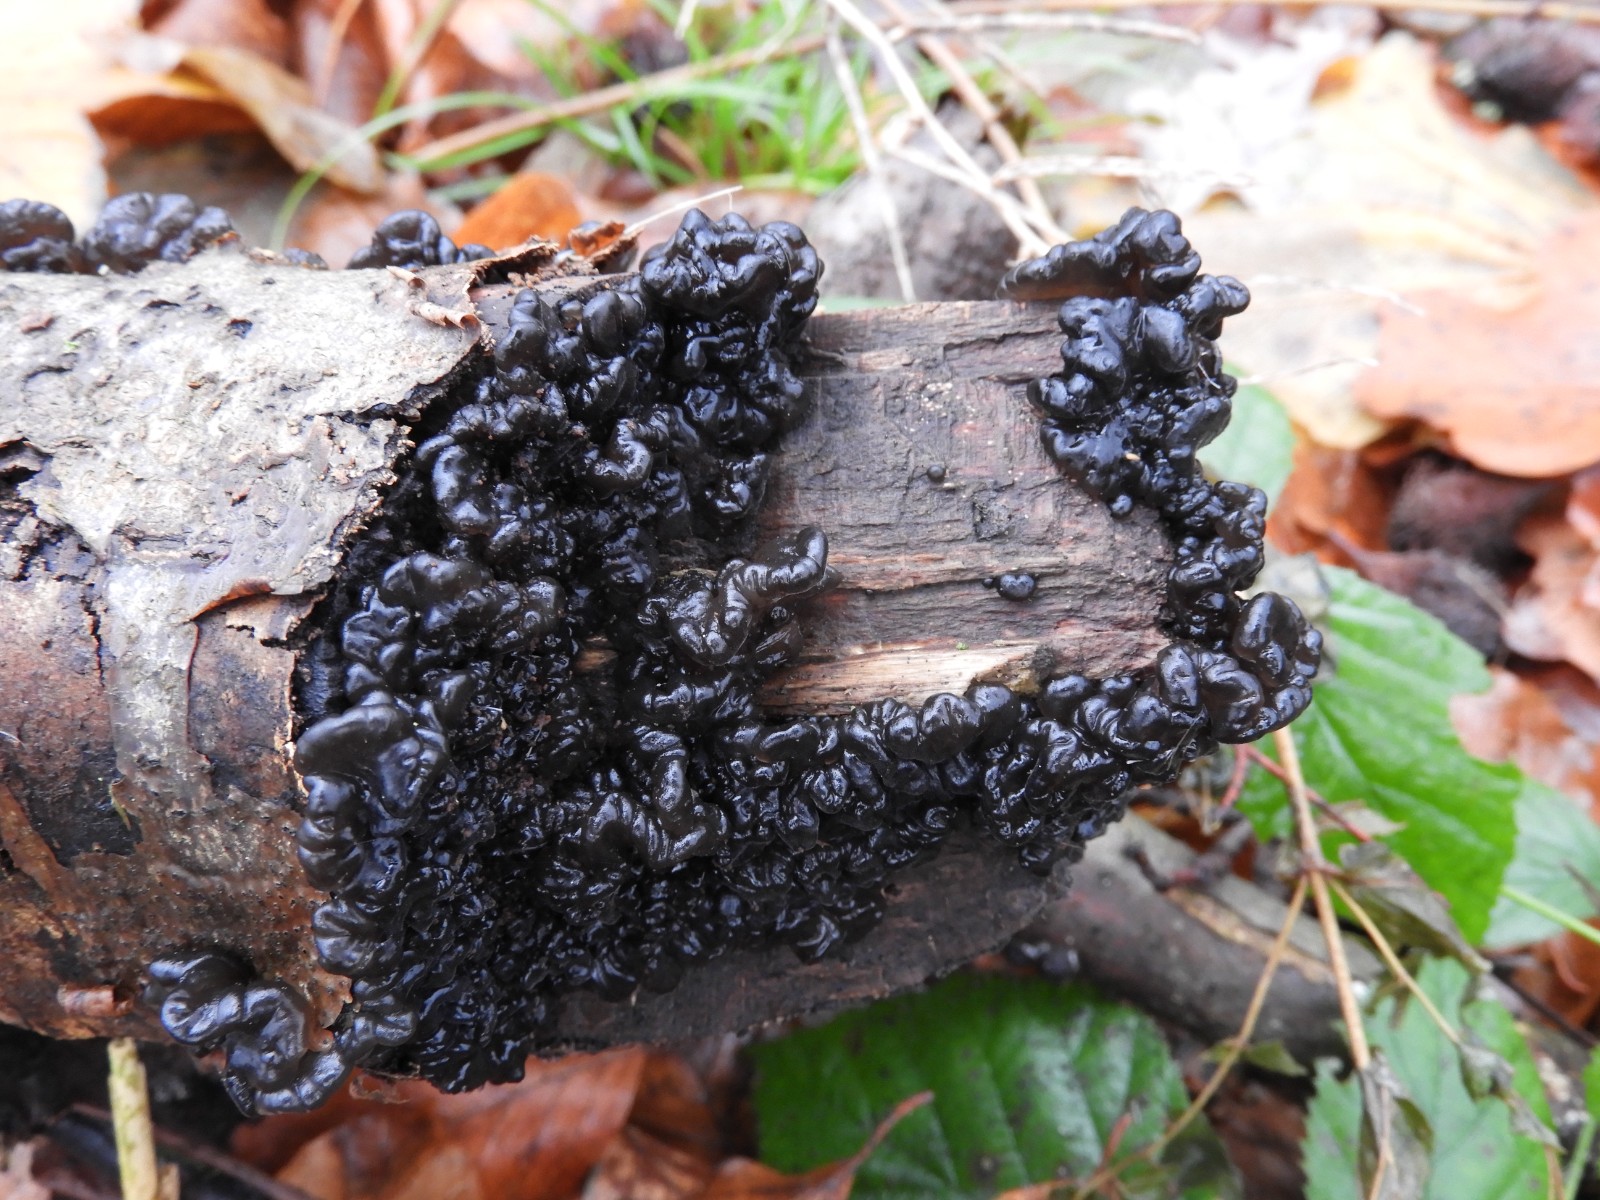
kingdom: Fungi
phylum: Basidiomycota
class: Agaricomycetes
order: Auriculariales
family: Auriculariaceae
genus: Exidia
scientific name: Exidia nigricans
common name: almindelig bævretop
